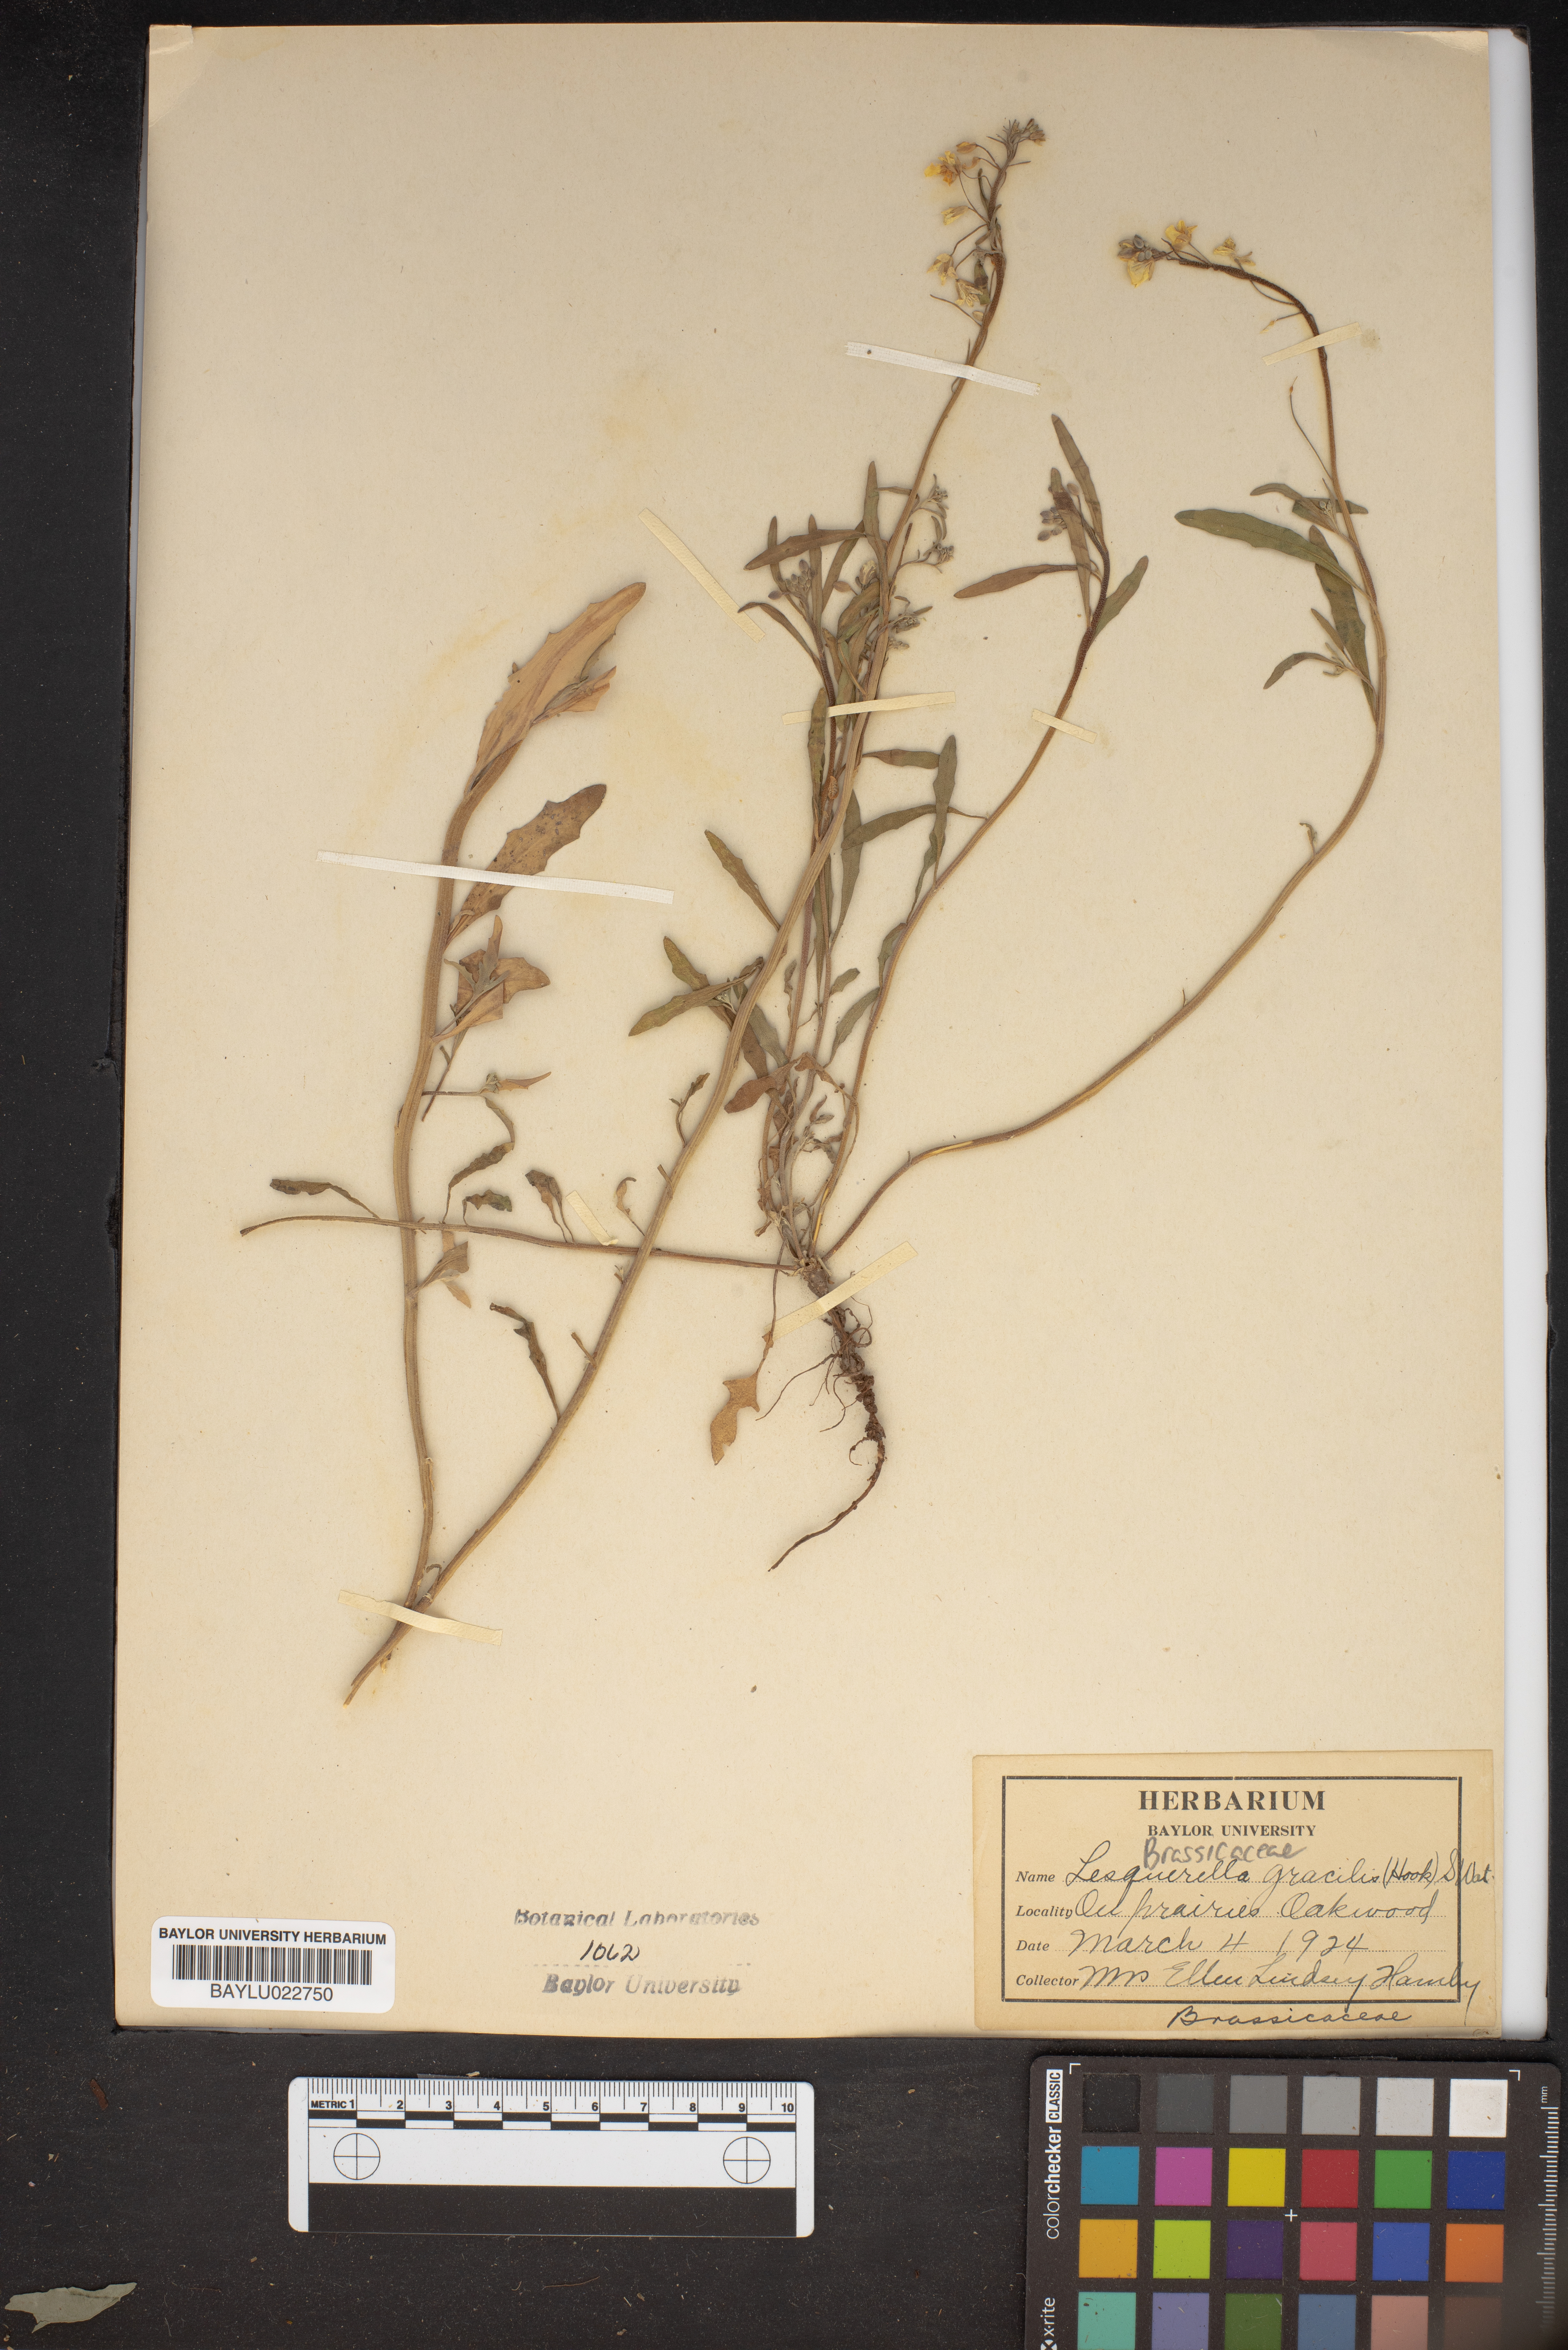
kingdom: Plantae
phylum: Tracheophyta
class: Magnoliopsida
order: Brassicales
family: Brassicaceae
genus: Physaria
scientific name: Physaria gracilis
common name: Spreading bladderpod
